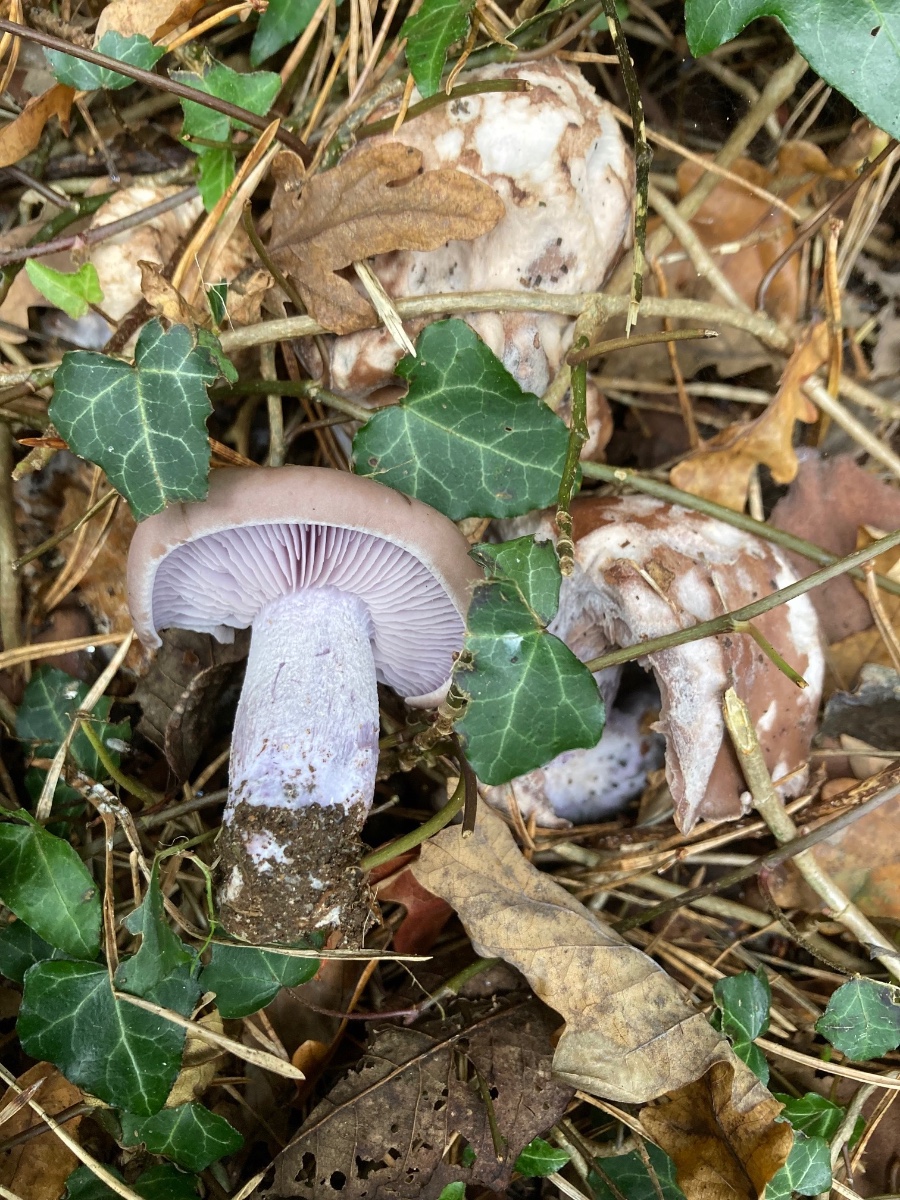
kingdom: Fungi
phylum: Basidiomycota
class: Agaricomycetes
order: Agaricales
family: Tricholomataceae
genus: Lepista
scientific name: Lepista nuda
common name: violet hekseringshat
